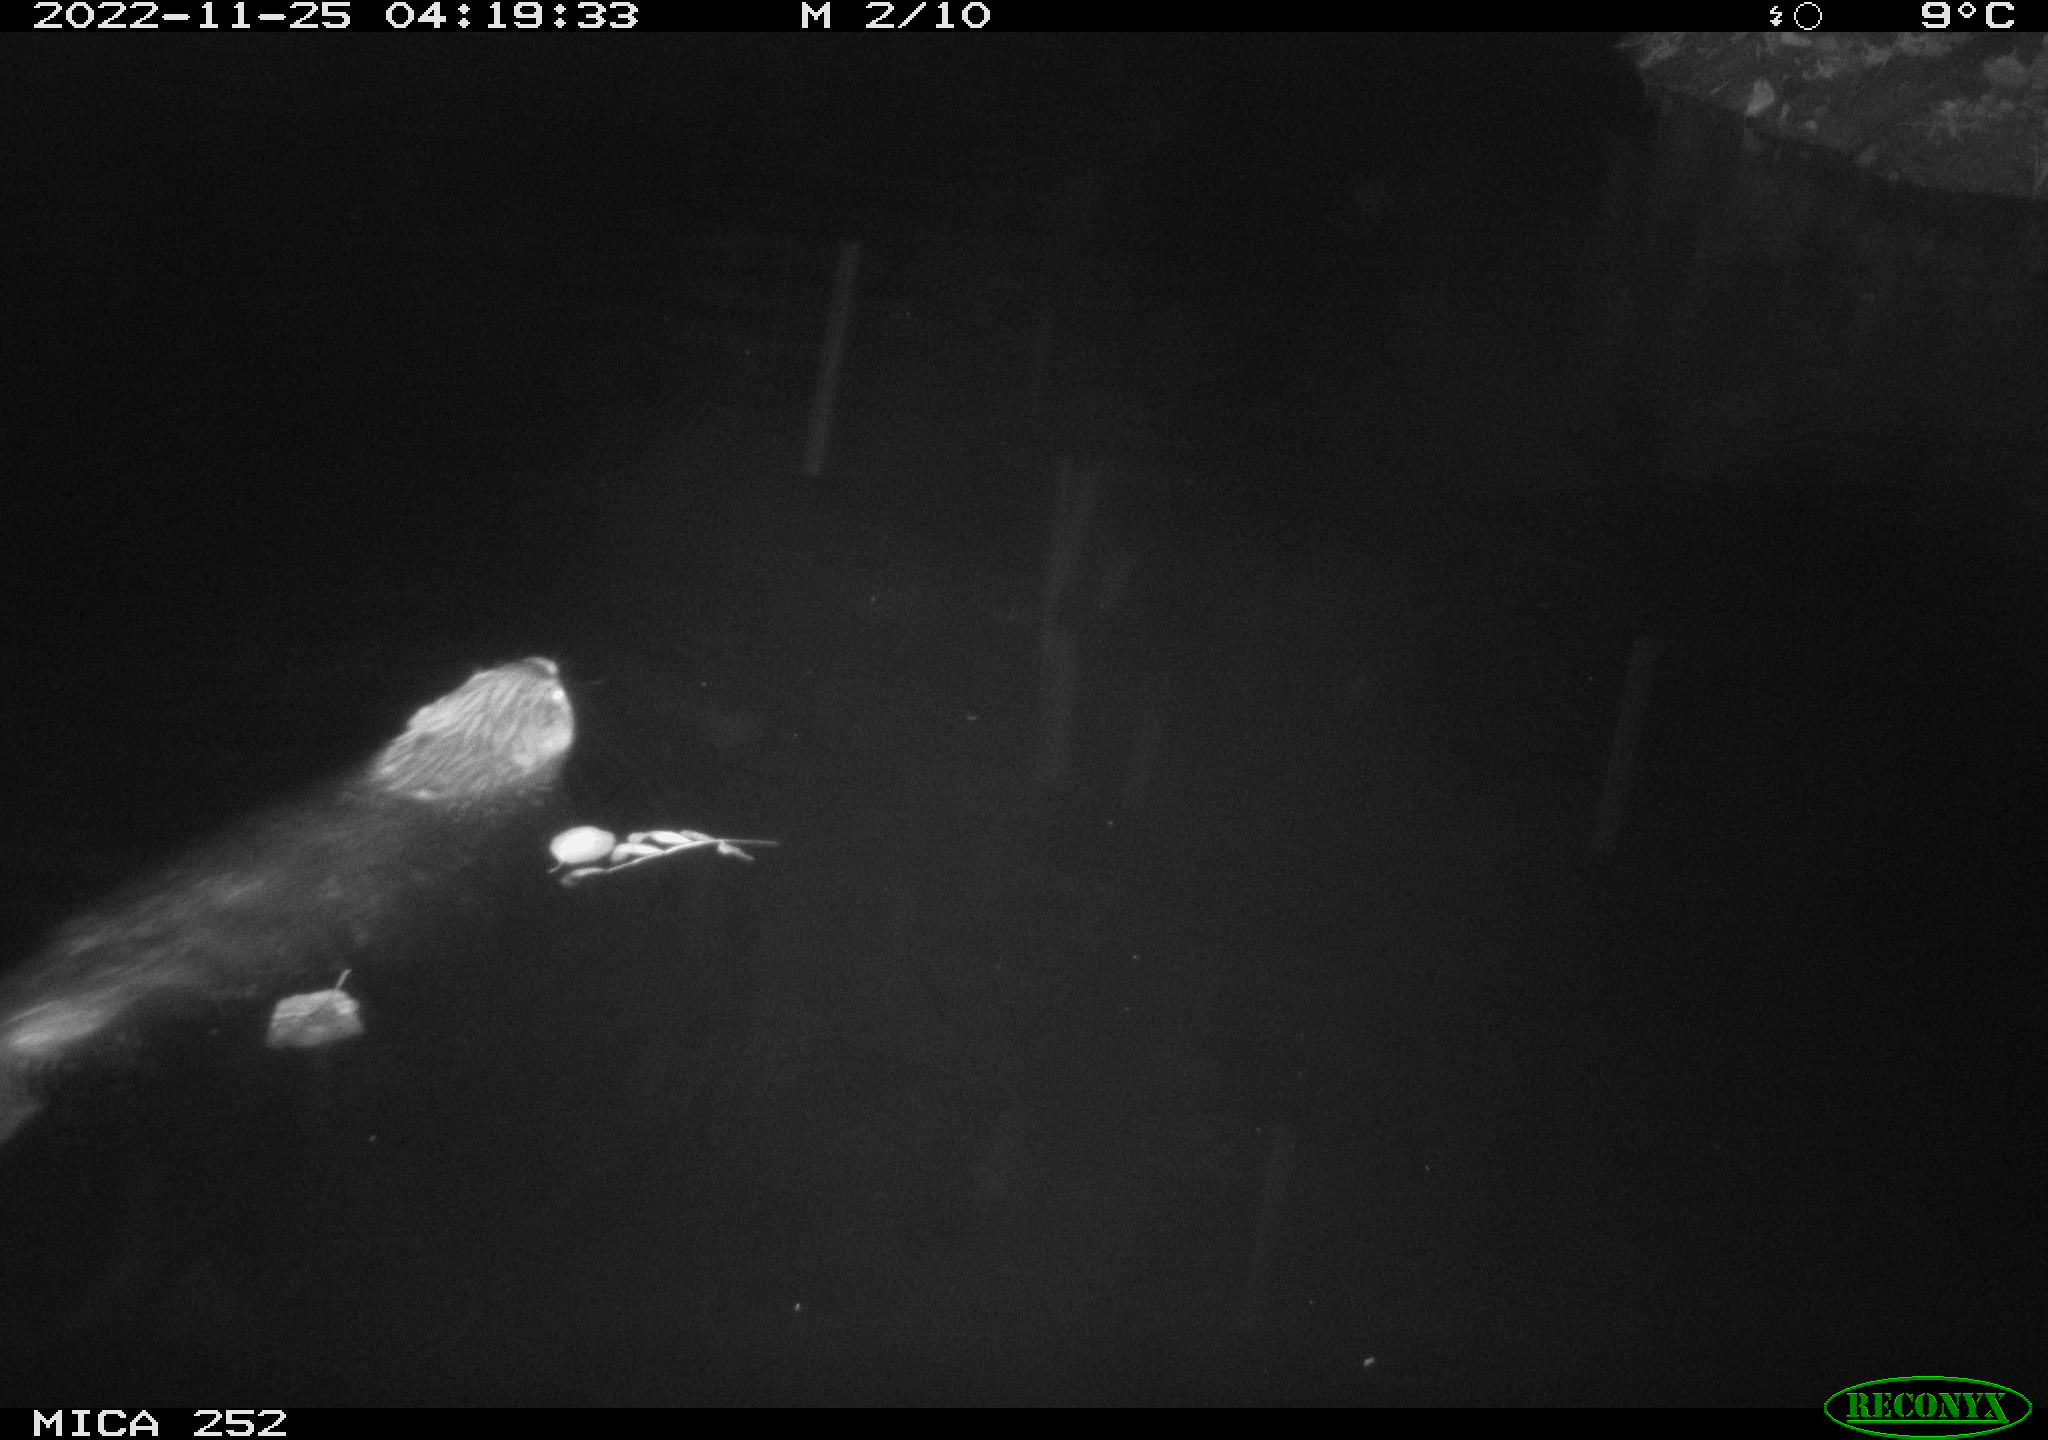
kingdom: Animalia
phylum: Chordata
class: Mammalia
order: Rodentia
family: Castoridae
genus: Castor
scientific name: Castor fiber
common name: Eurasian beaver
